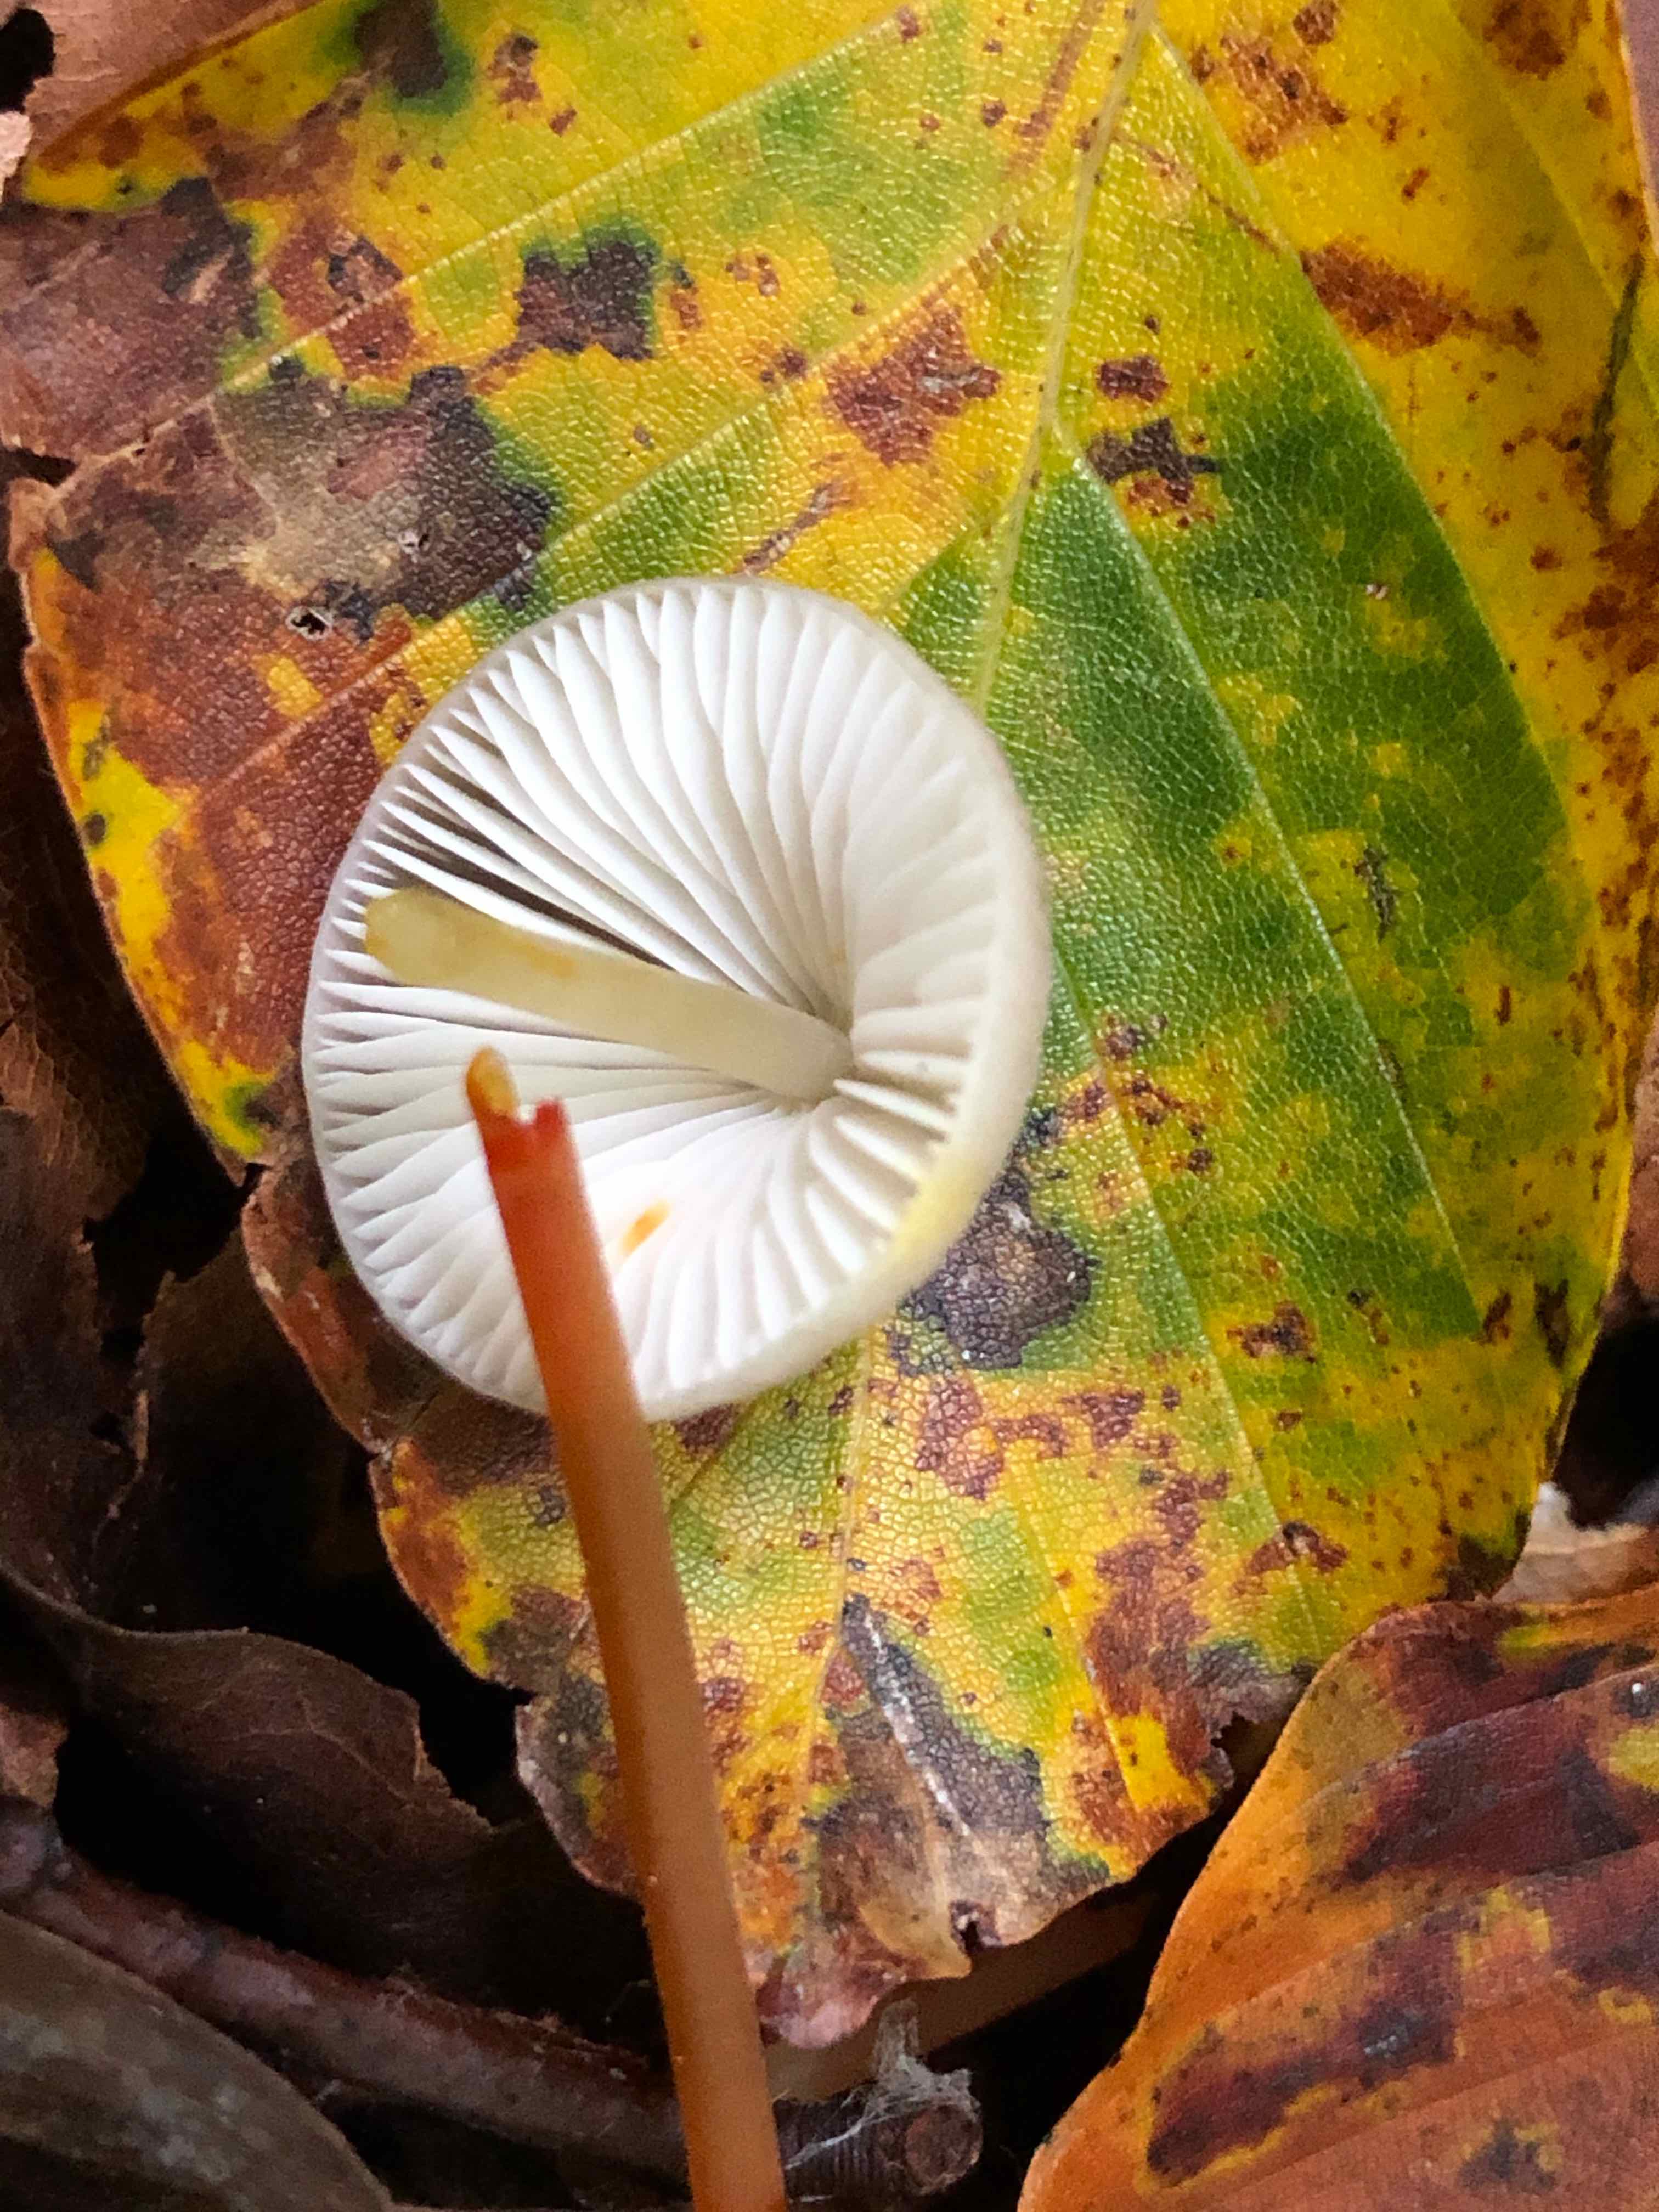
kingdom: Fungi
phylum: Basidiomycota
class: Agaricomycetes
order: Agaricales
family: Mycenaceae
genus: Mycena
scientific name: Mycena crocata
